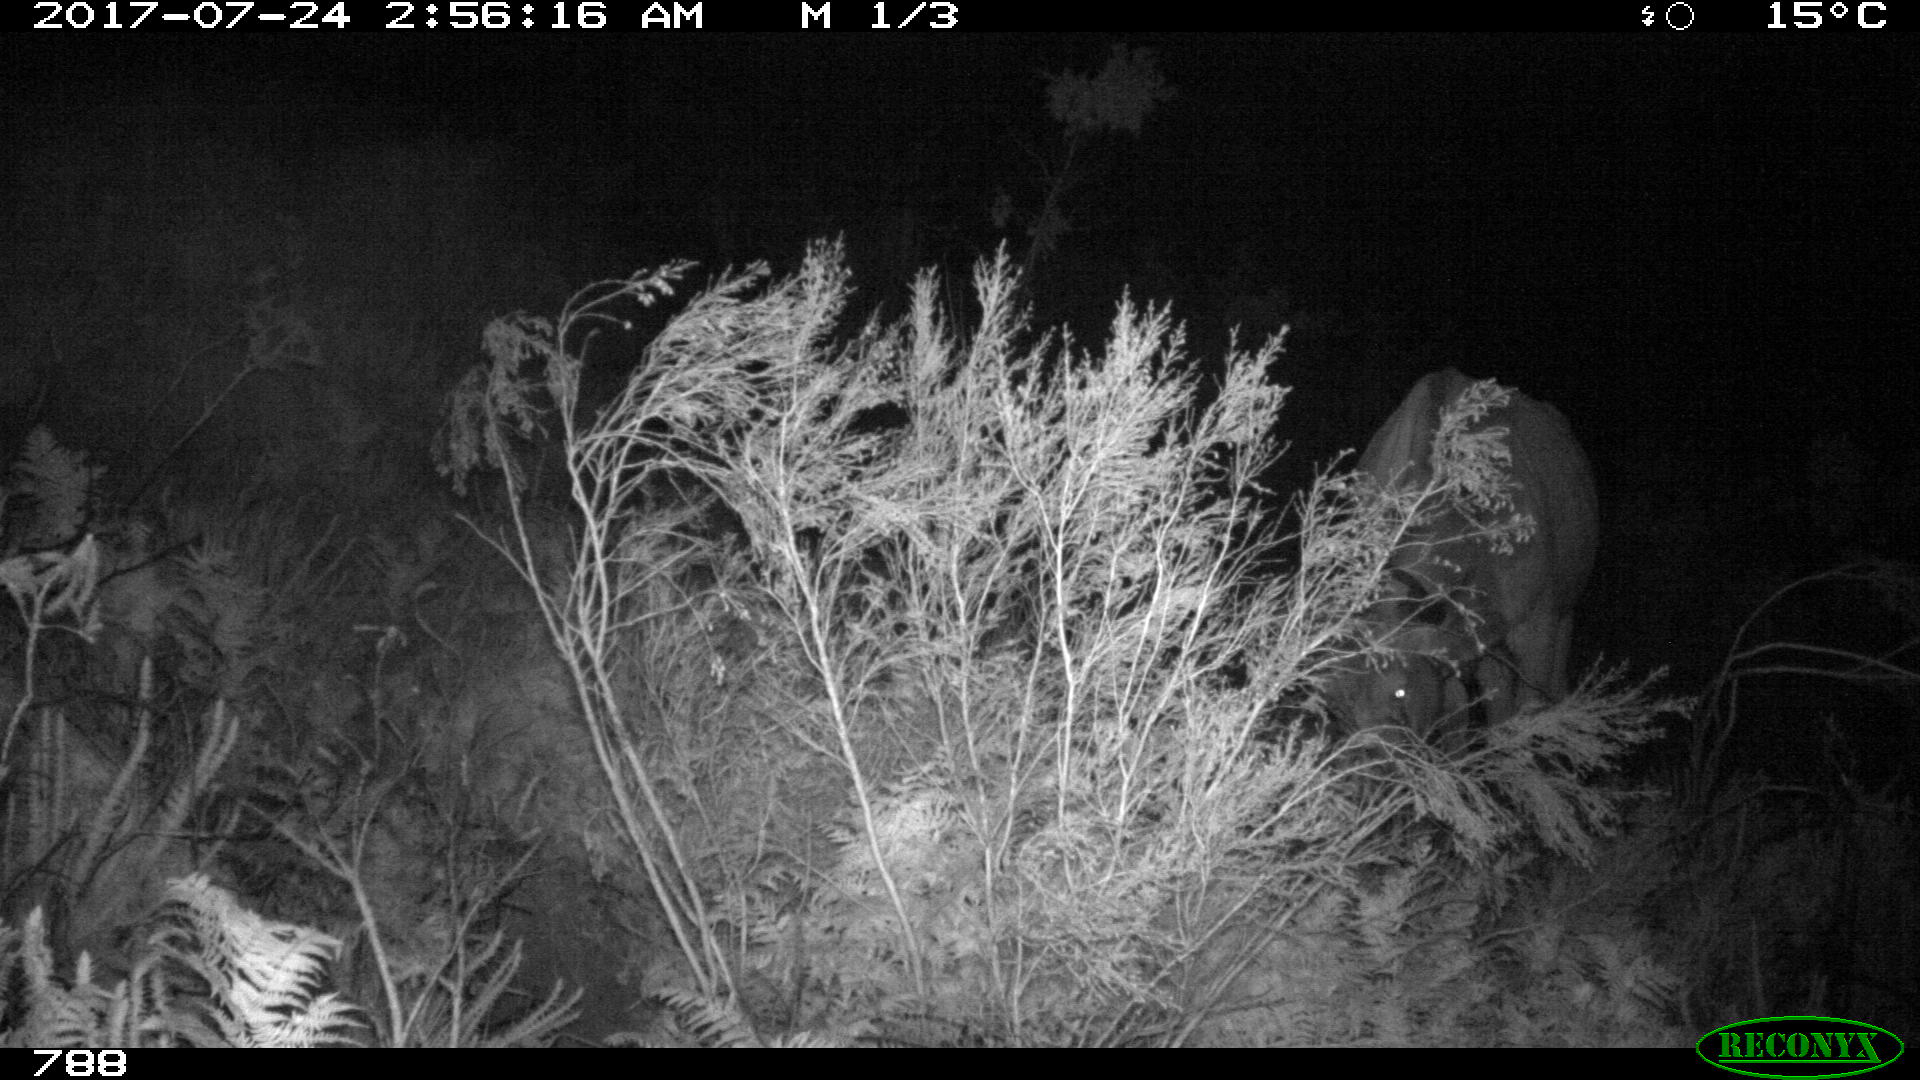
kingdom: Animalia
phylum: Chordata
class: Mammalia
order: Artiodactyla
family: Bovidae
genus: Bos
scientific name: Bos taurus
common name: Domesticated cattle
